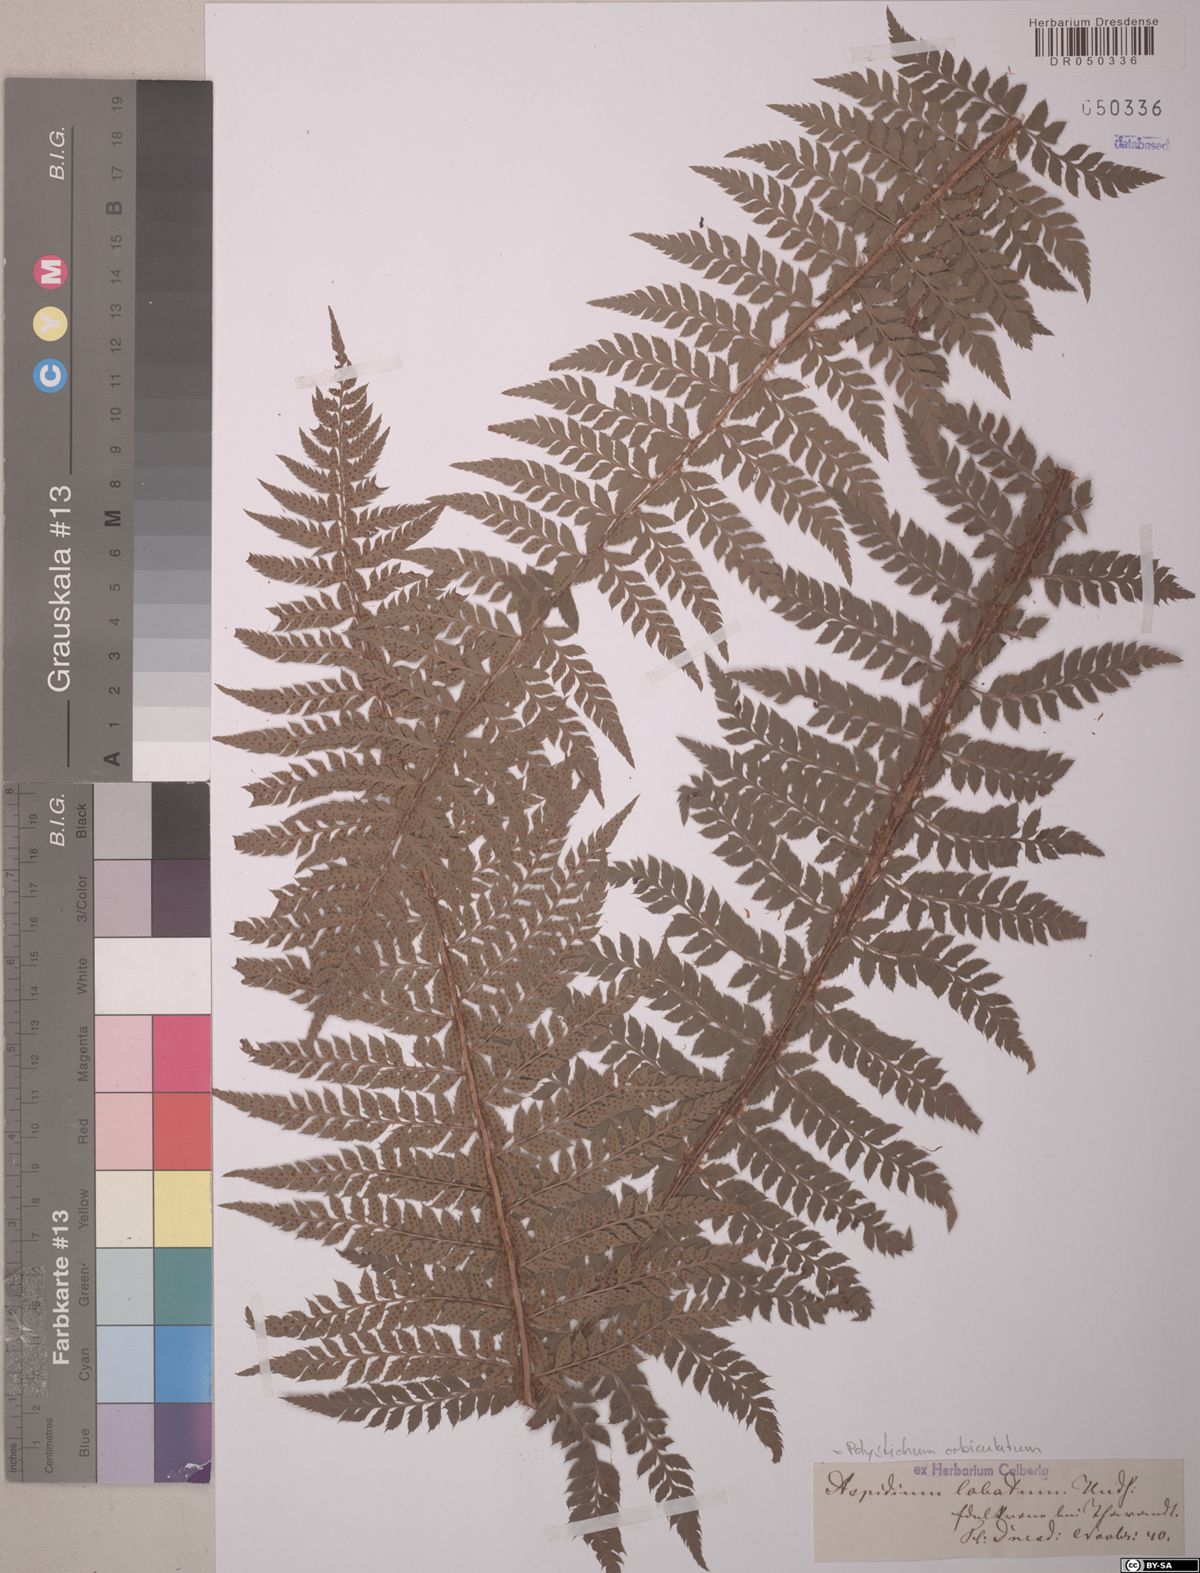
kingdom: Plantae
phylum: Tracheophyta
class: Polypodiopsida
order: Polypodiales
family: Dryopteridaceae
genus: Polystichum
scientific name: Polystichum aculeatum
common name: Hard shield-fern
